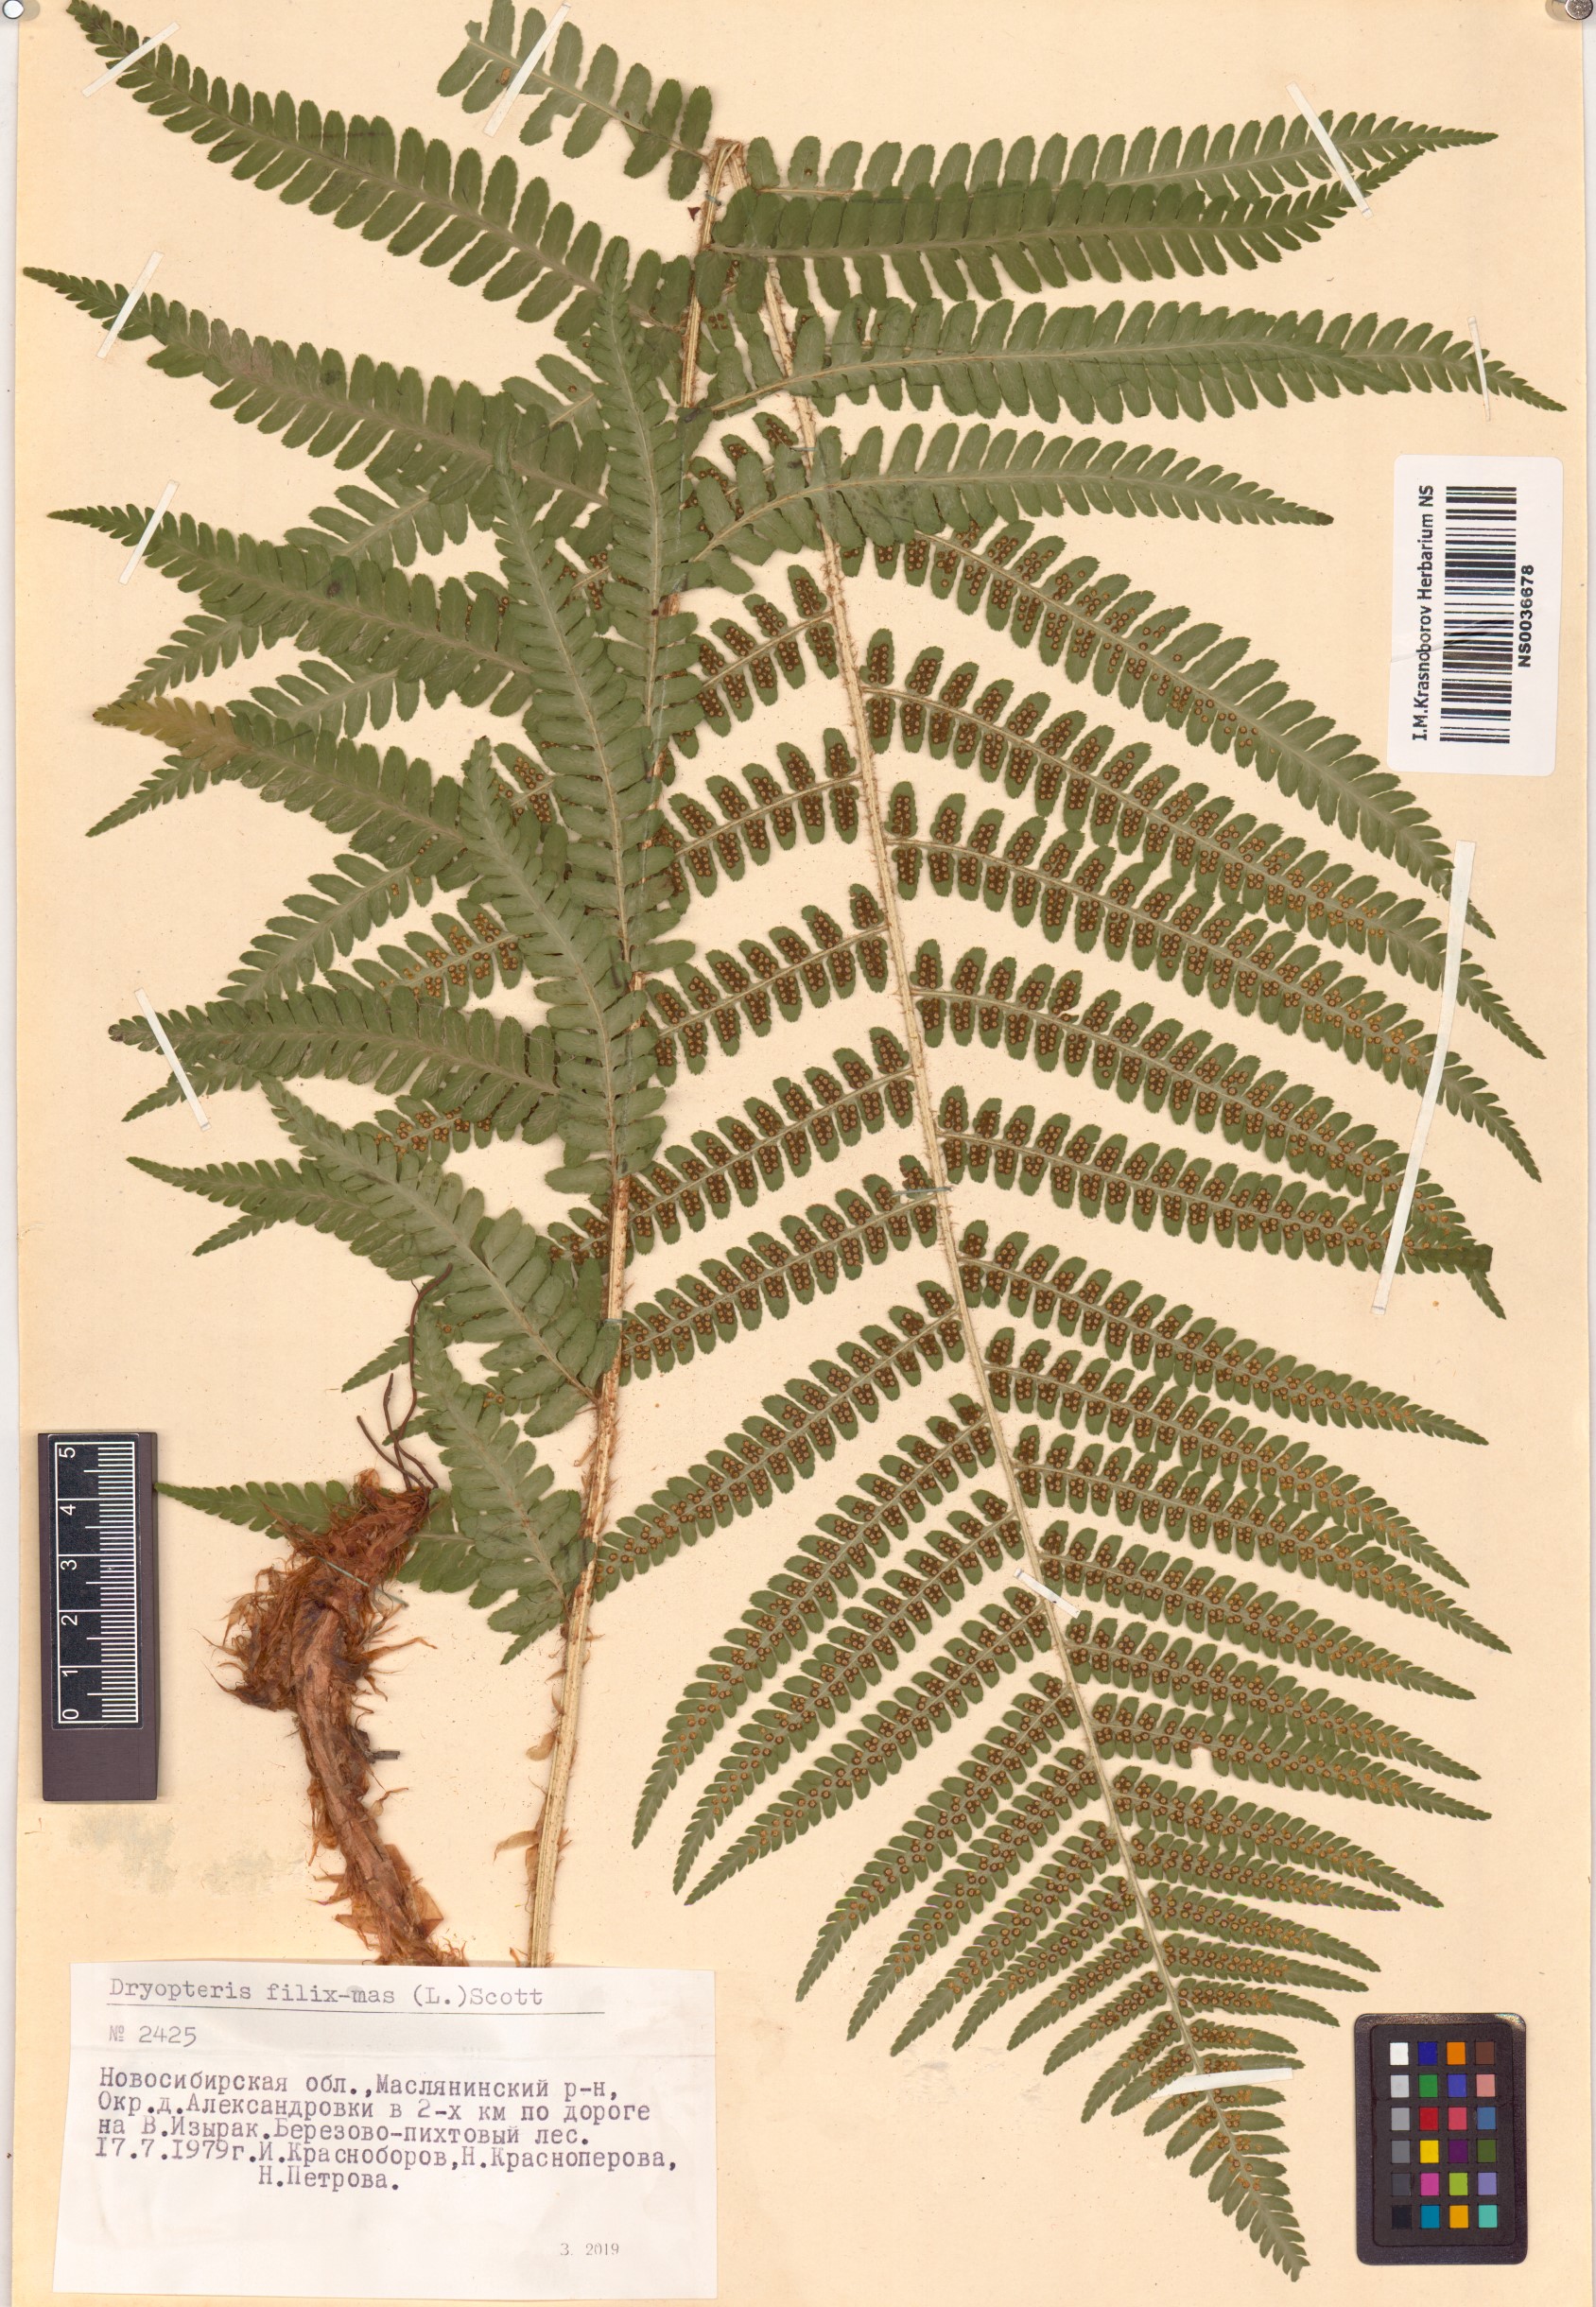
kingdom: Plantae
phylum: Tracheophyta
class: Polypodiopsida
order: Polypodiales
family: Dryopteridaceae
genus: Dryopteris
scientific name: Dryopteris filix-mas
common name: Male fern
